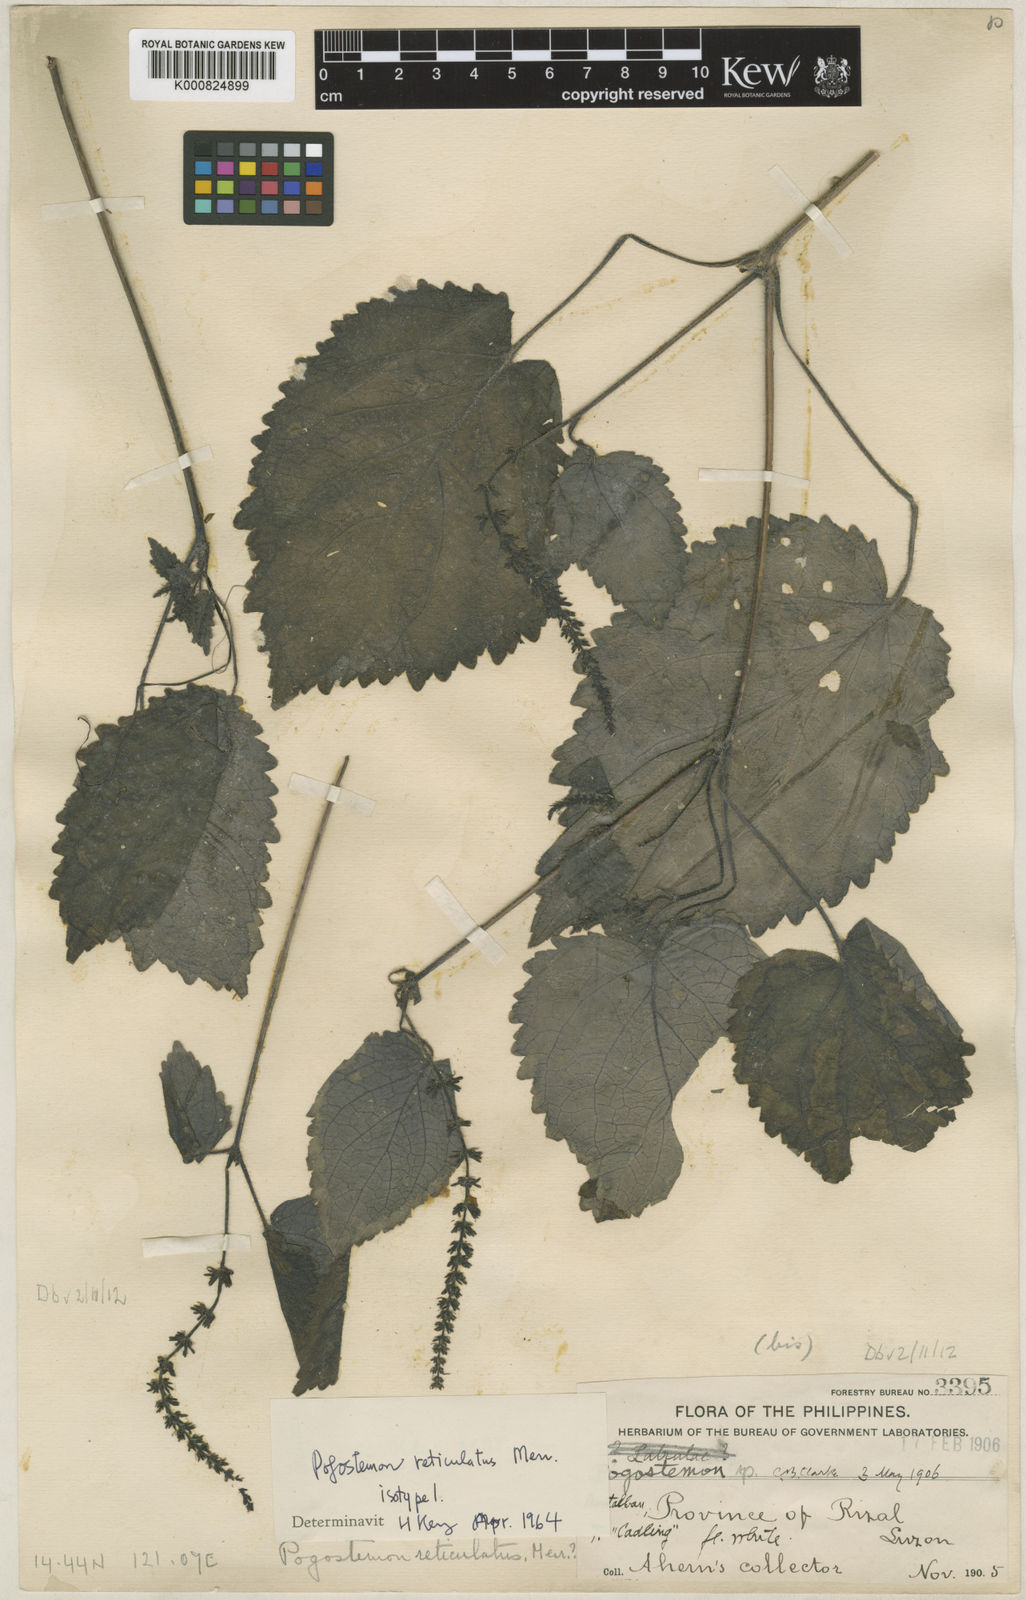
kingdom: Plantae
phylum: Tracheophyta
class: Magnoliopsida
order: Lamiales
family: Lamiaceae
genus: Pogostemon
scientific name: Pogostemon reticulatus
